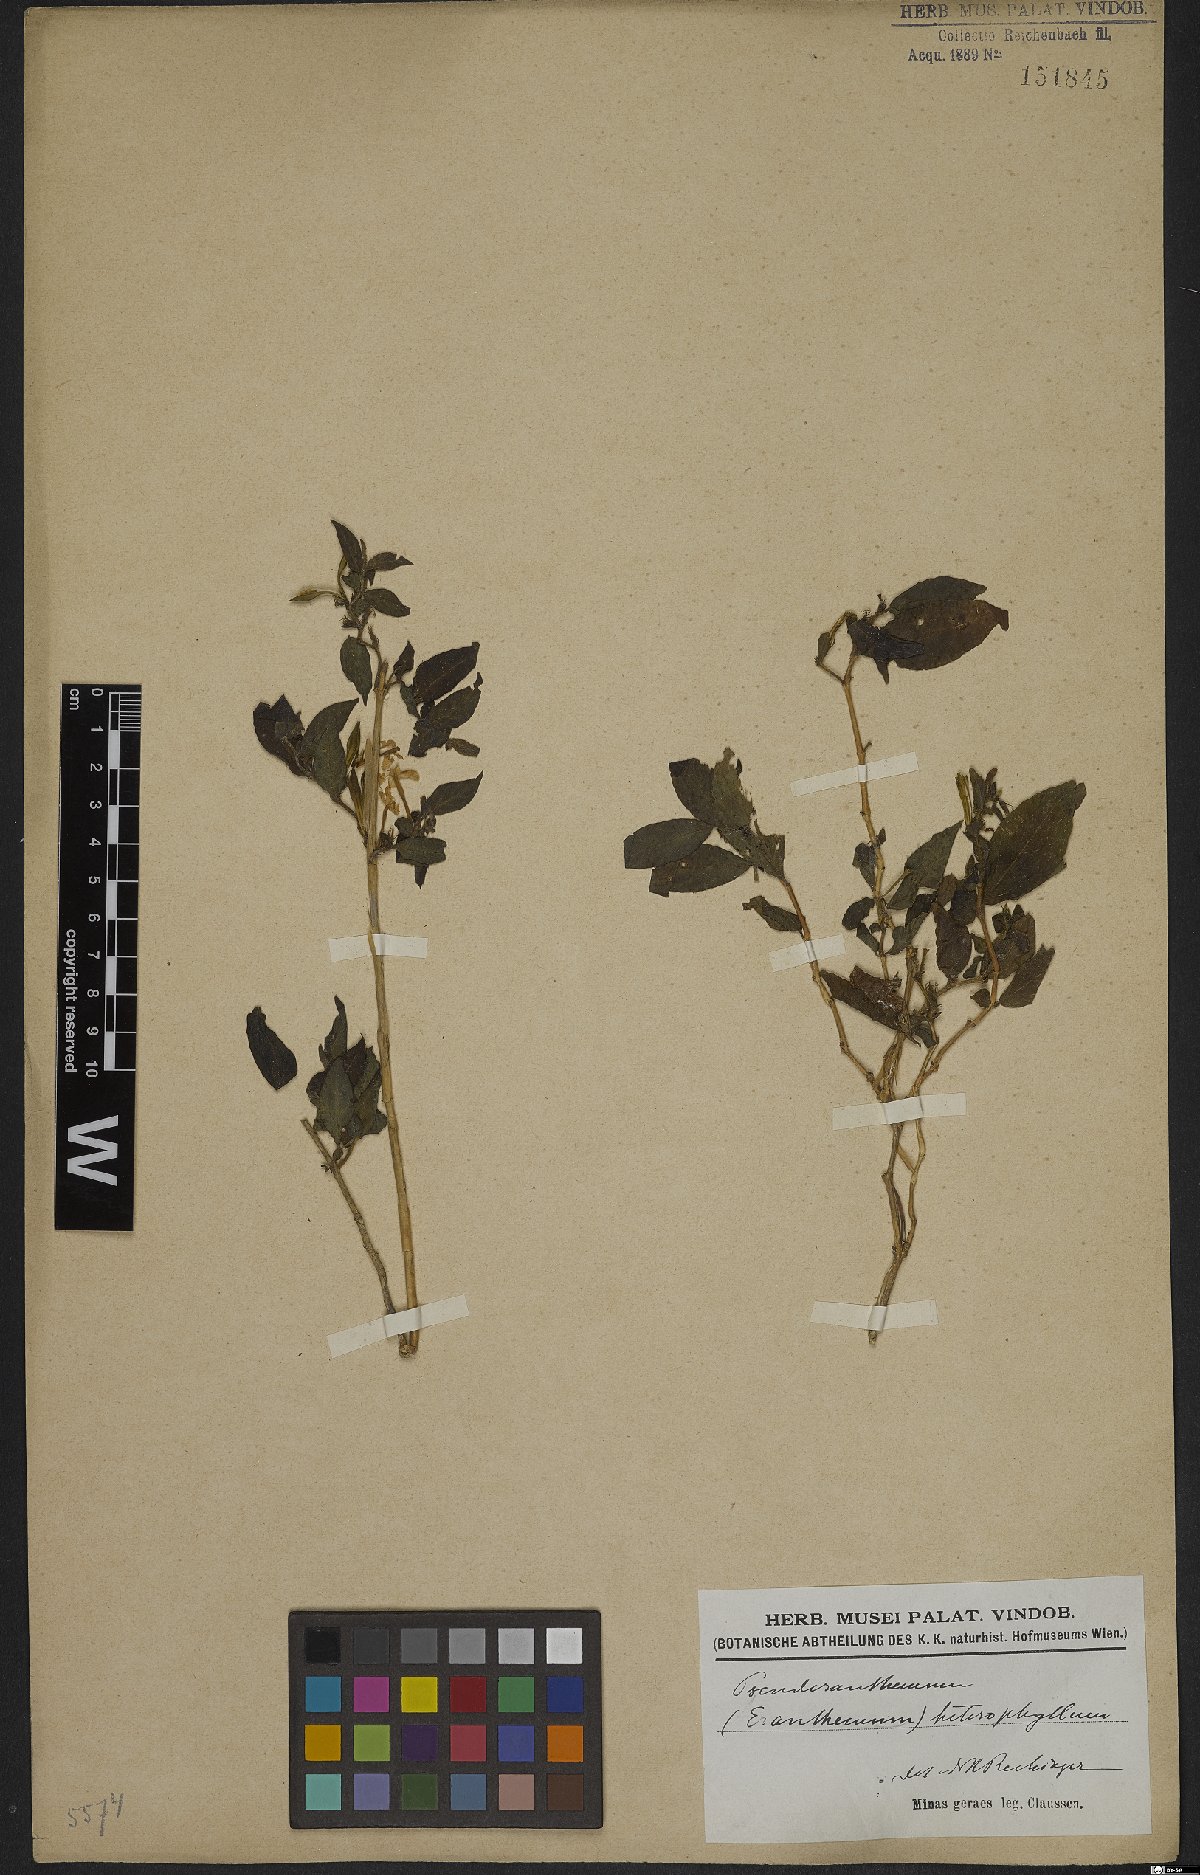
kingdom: Plantae
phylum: Tracheophyta
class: Magnoliopsida
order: Lamiales
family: Acanthaceae
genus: Pseuderanthemum
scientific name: Pseuderanthemum heterophyllum
